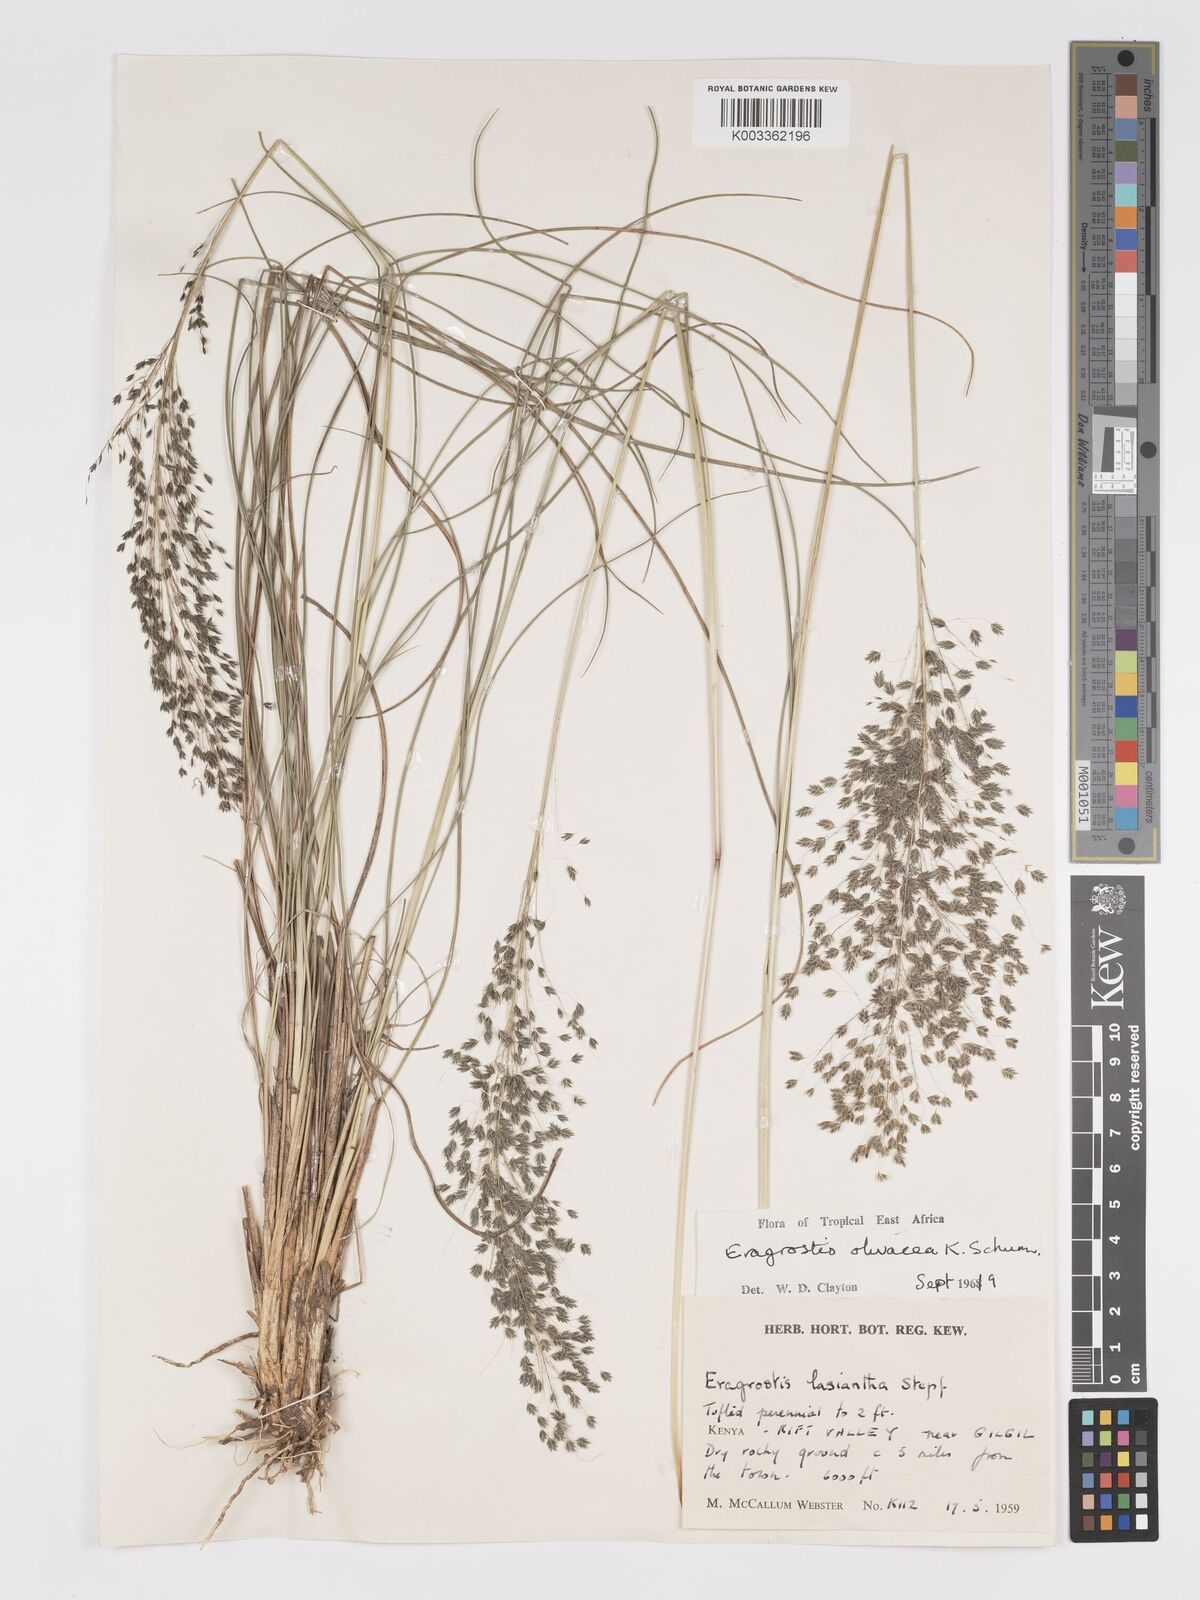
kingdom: Plantae
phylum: Tracheophyta
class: Liliopsida
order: Poales
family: Poaceae
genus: Eragrostis
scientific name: Eragrostis olivacea
